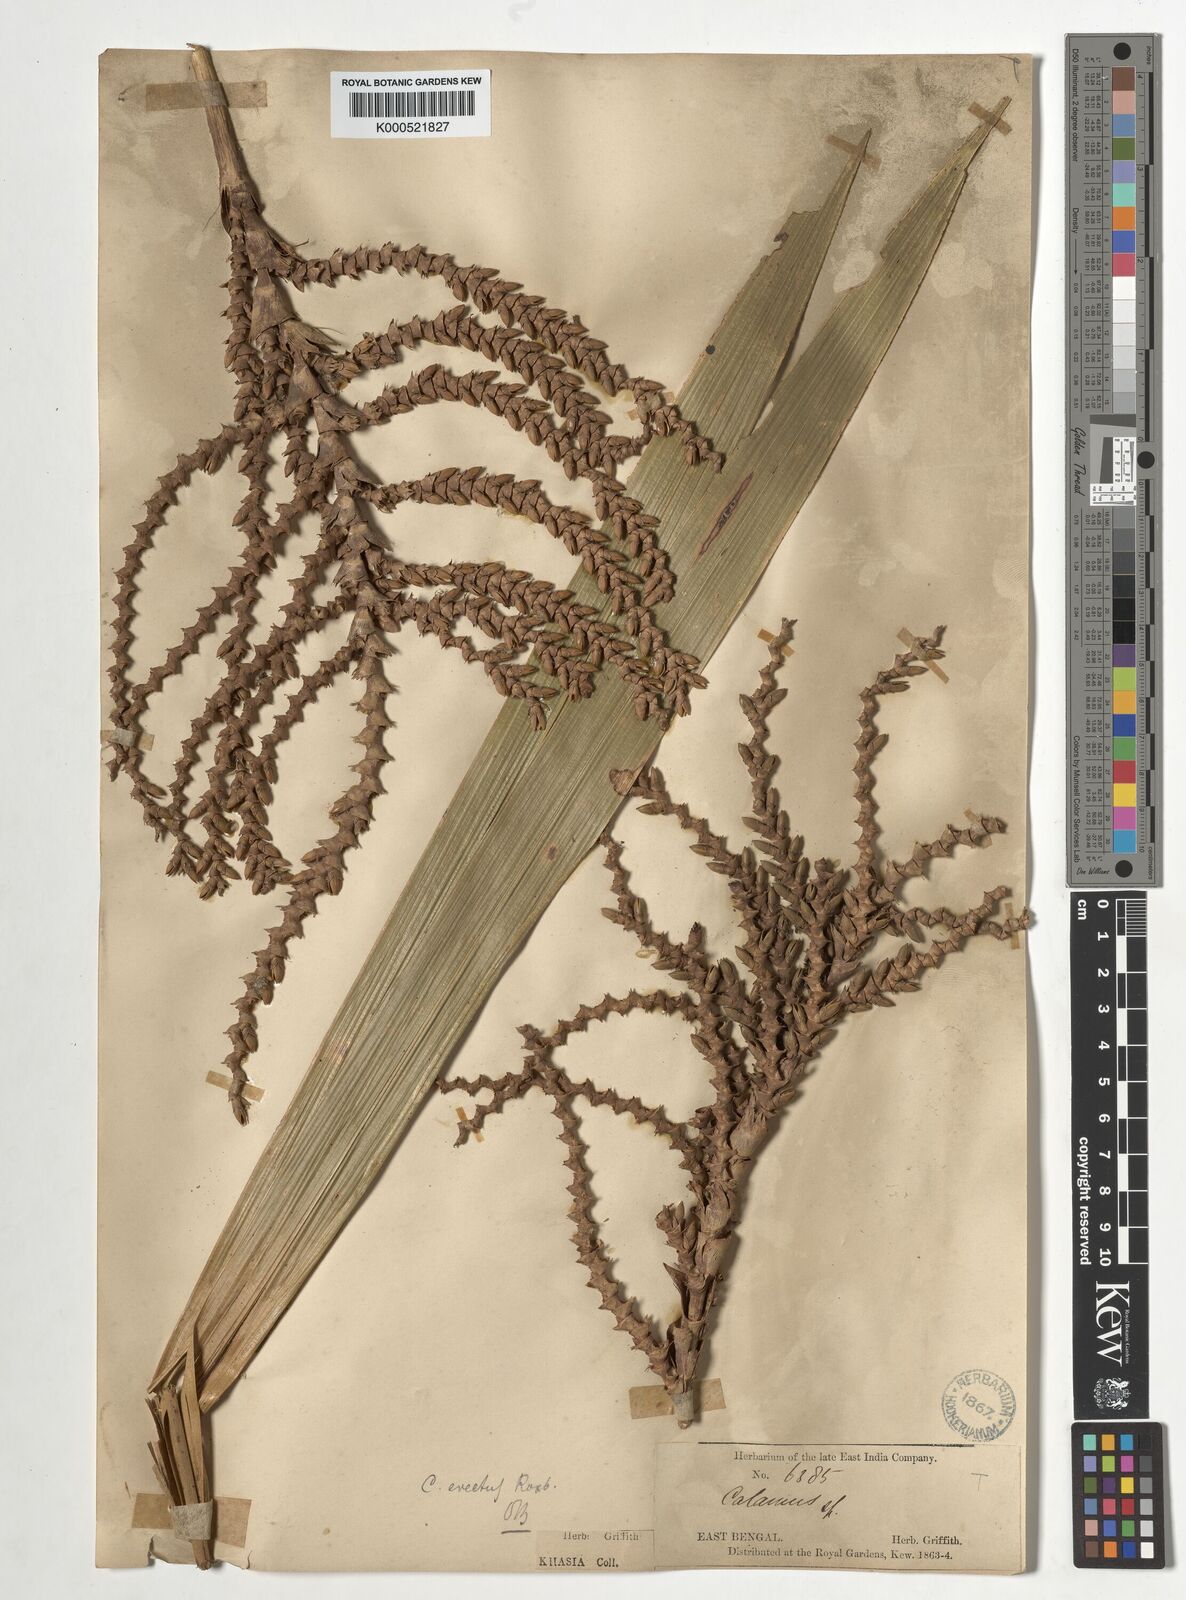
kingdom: Plantae
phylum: Tracheophyta
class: Liliopsida
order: Arecales
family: Arecaceae
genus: Calamus
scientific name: Calamus erectus
